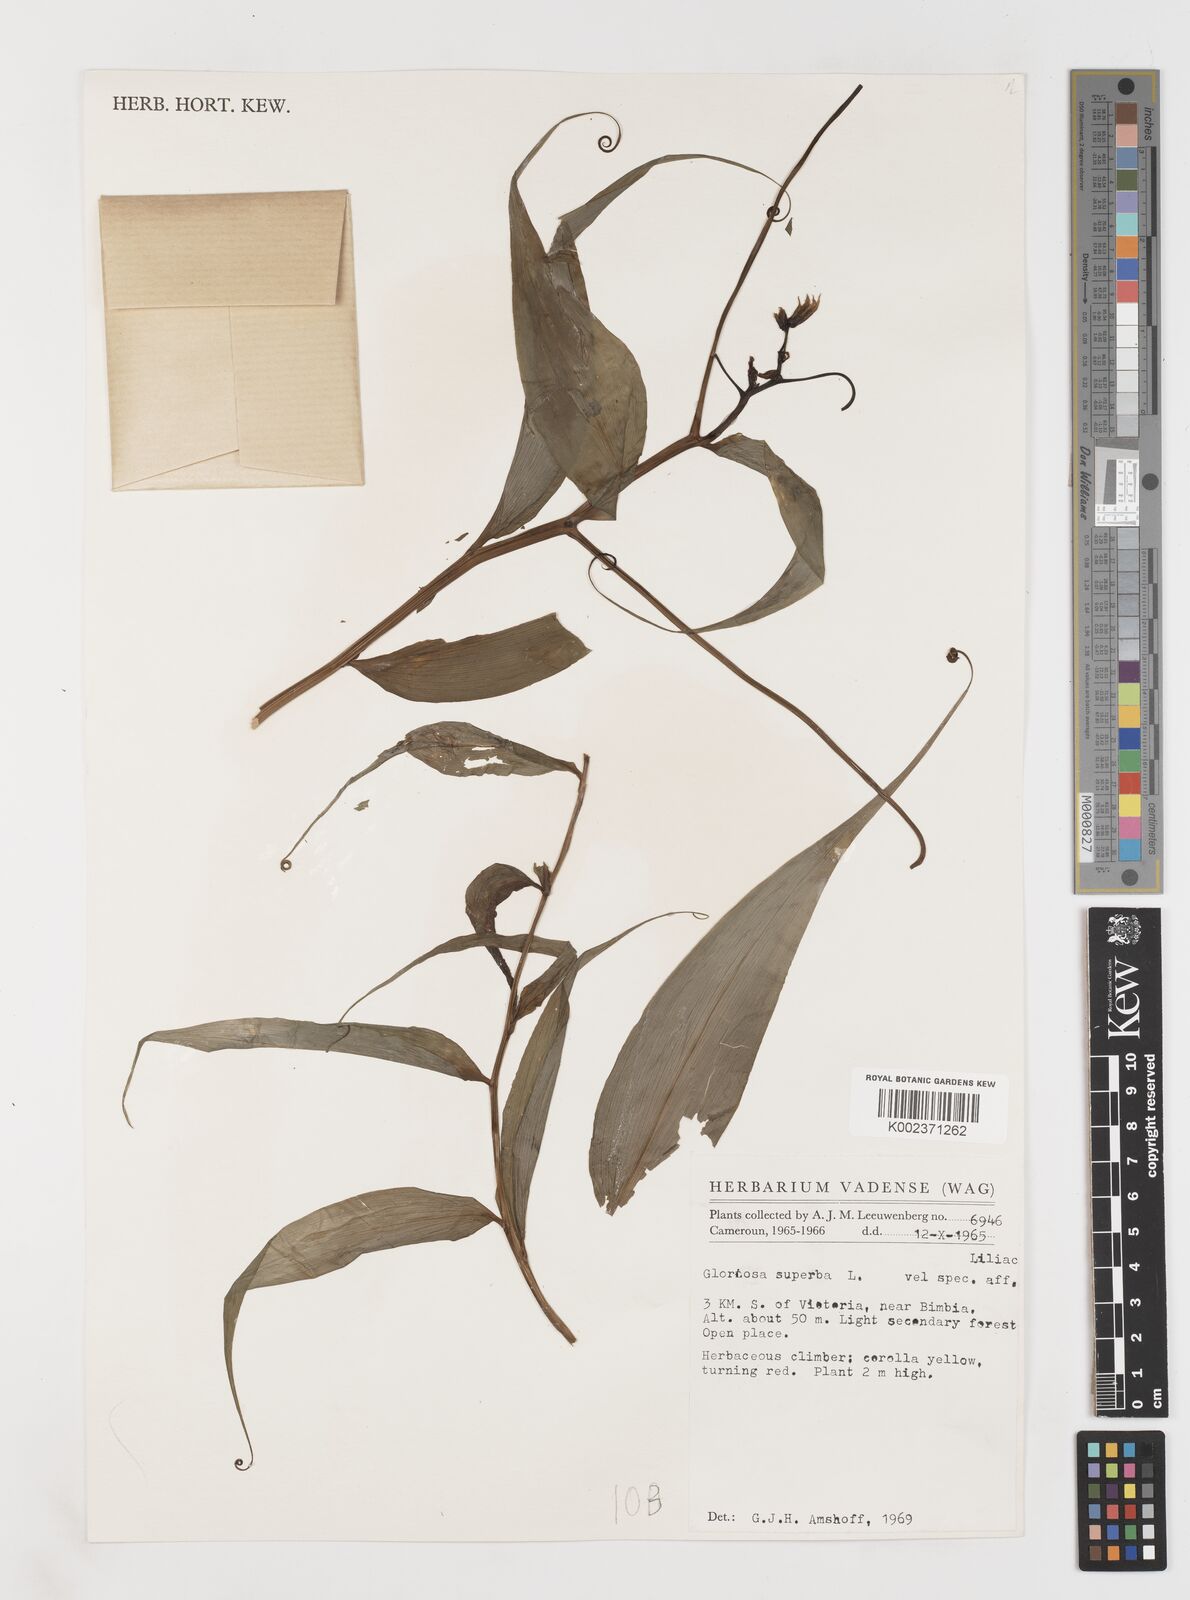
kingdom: Plantae
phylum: Tracheophyta
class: Liliopsida
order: Liliales
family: Colchicaceae
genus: Gloriosa
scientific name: Gloriosa simplex
